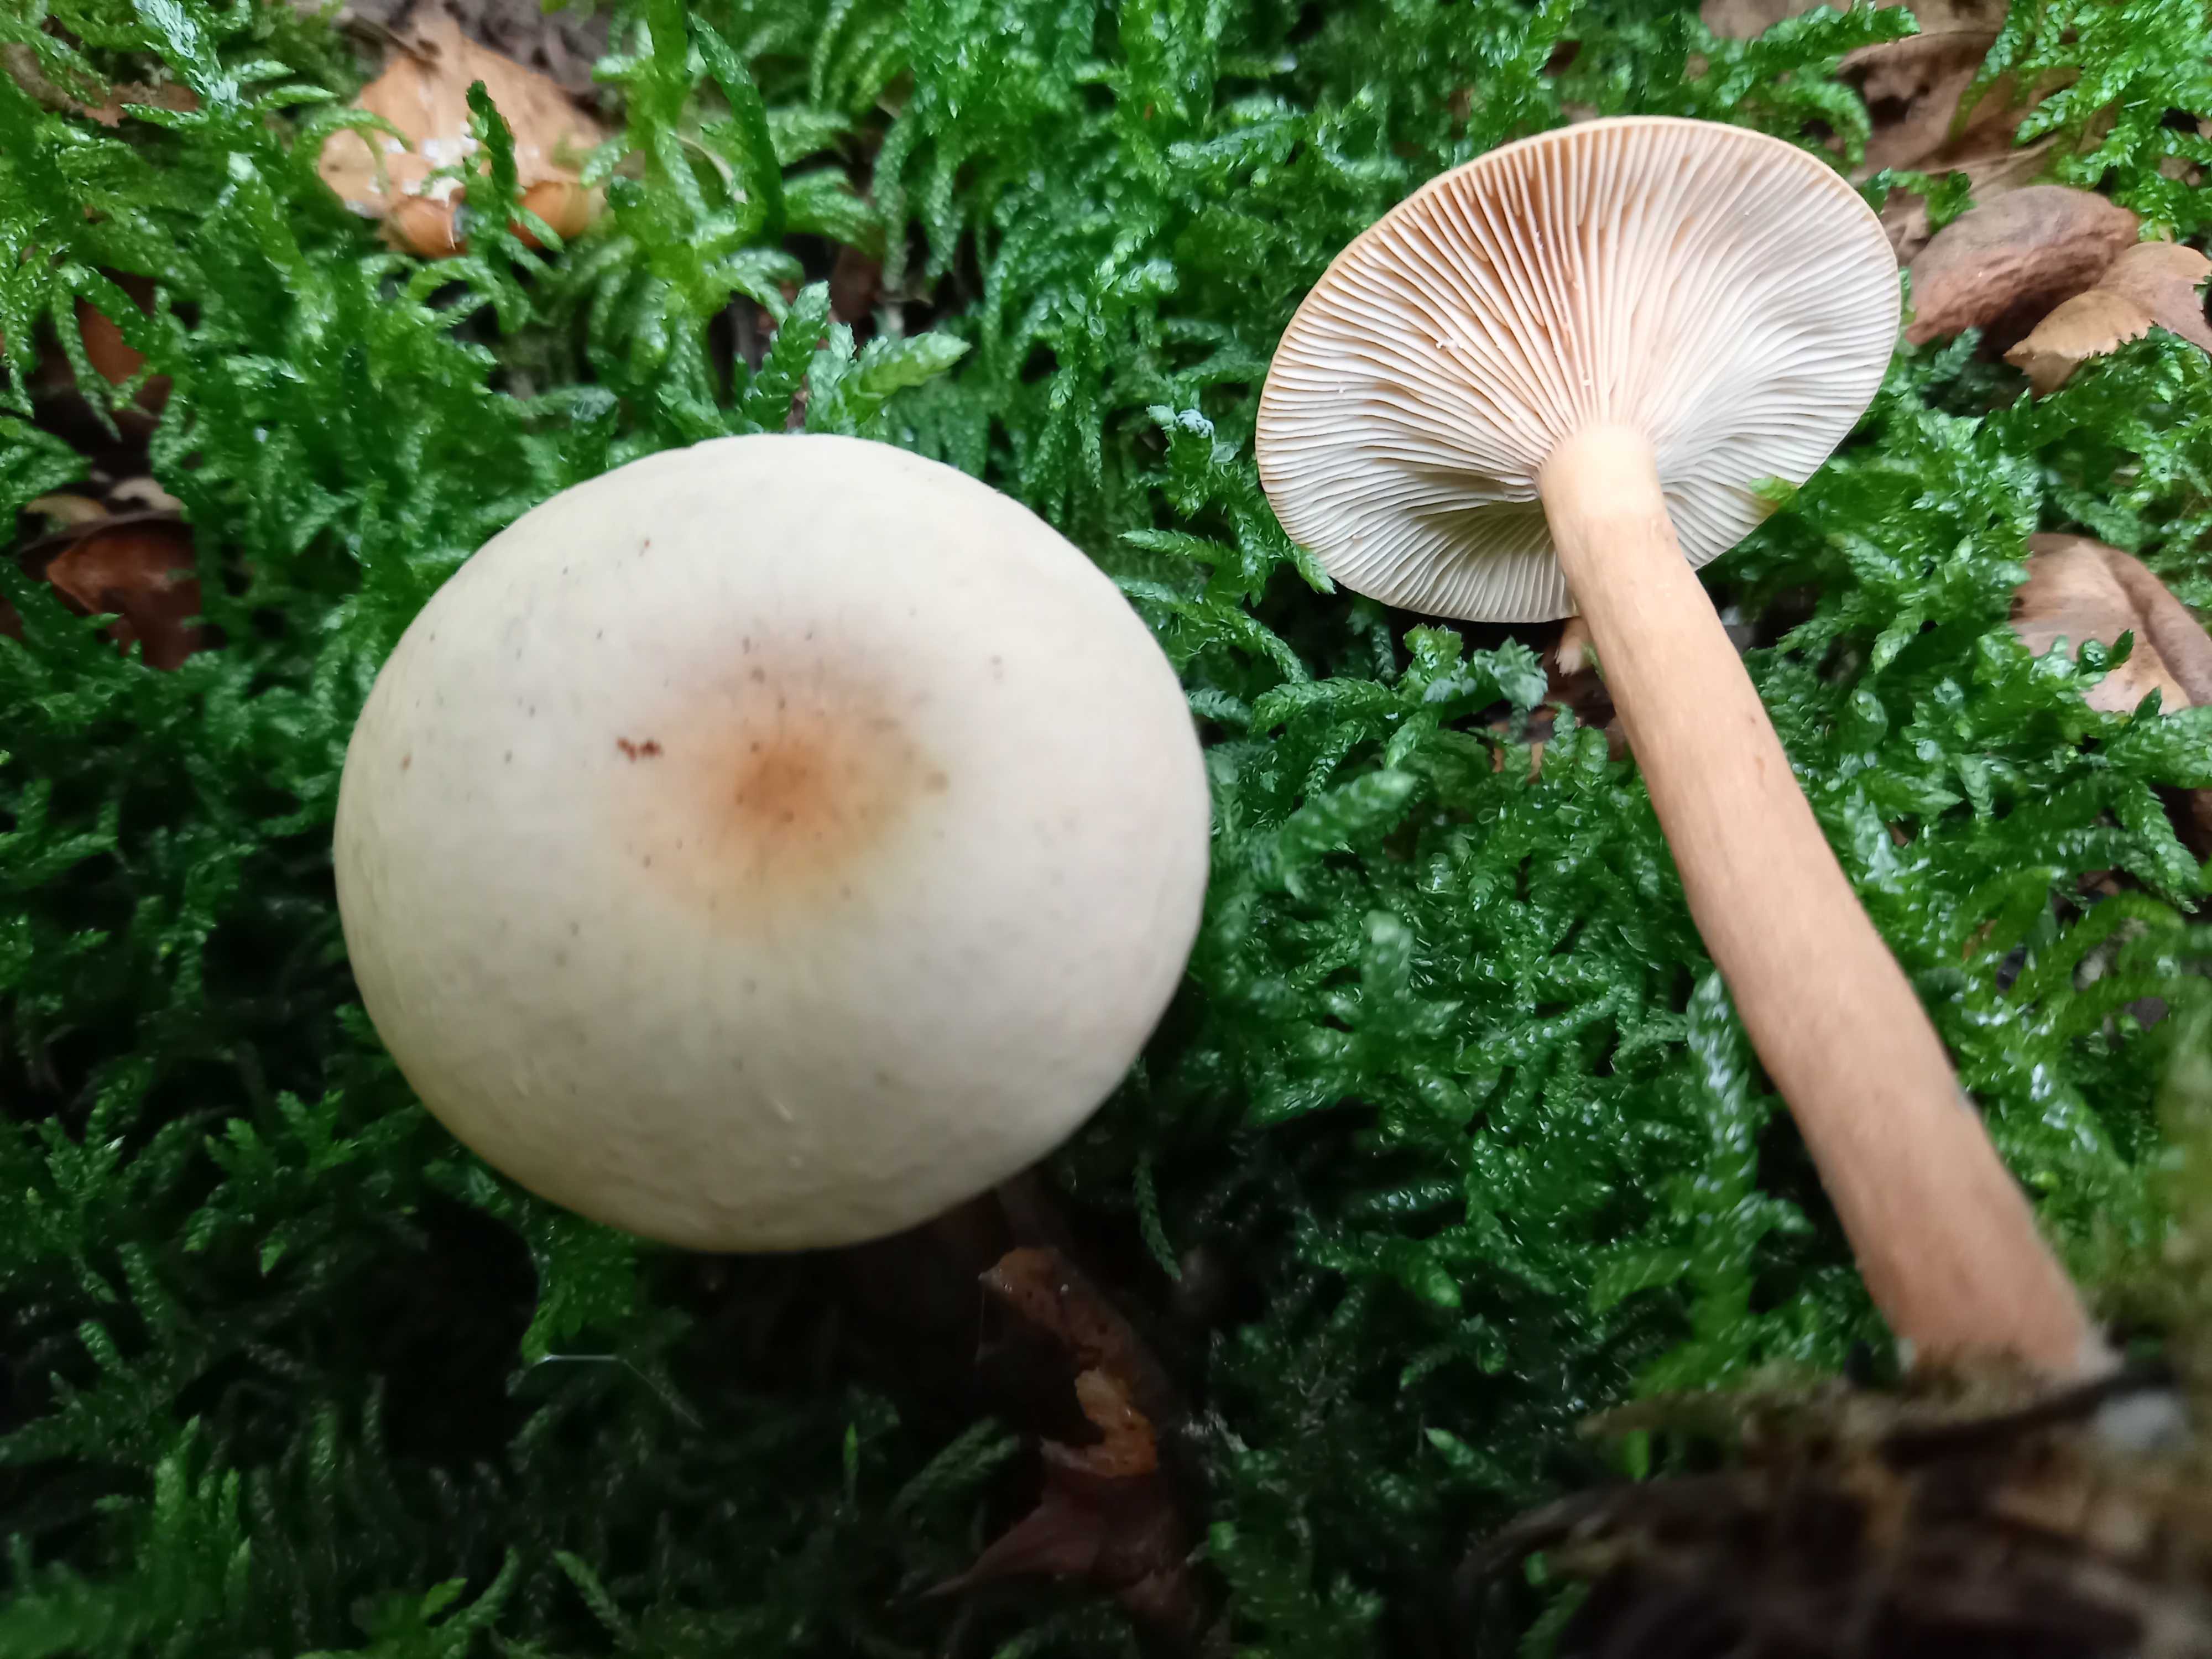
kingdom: Fungi
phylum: Basidiomycota
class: Agaricomycetes
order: Russulales
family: Russulaceae
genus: Lactarius
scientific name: Lactarius tabidus
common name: rynket mælkehat
